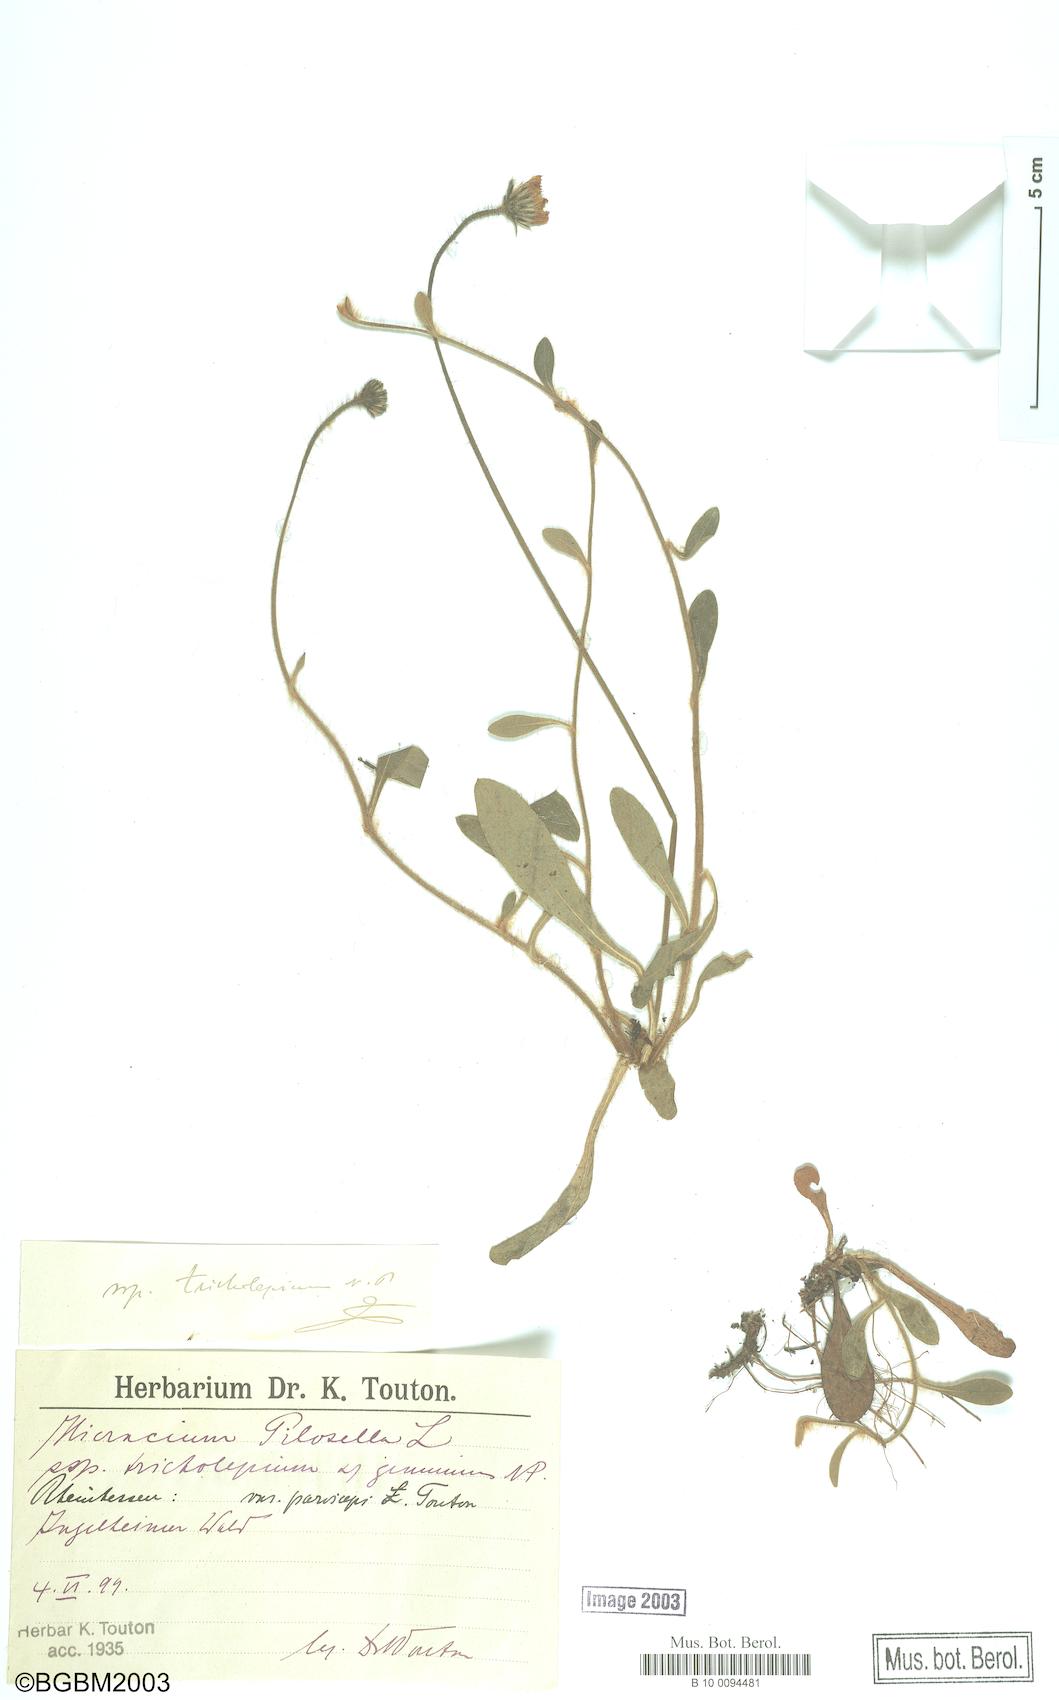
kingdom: Plantae
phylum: Tracheophyta
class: Magnoliopsida
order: Asterales
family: Asteraceae
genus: Pilosella
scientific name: Pilosella officinarum
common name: Mouse-ear hawkweed
